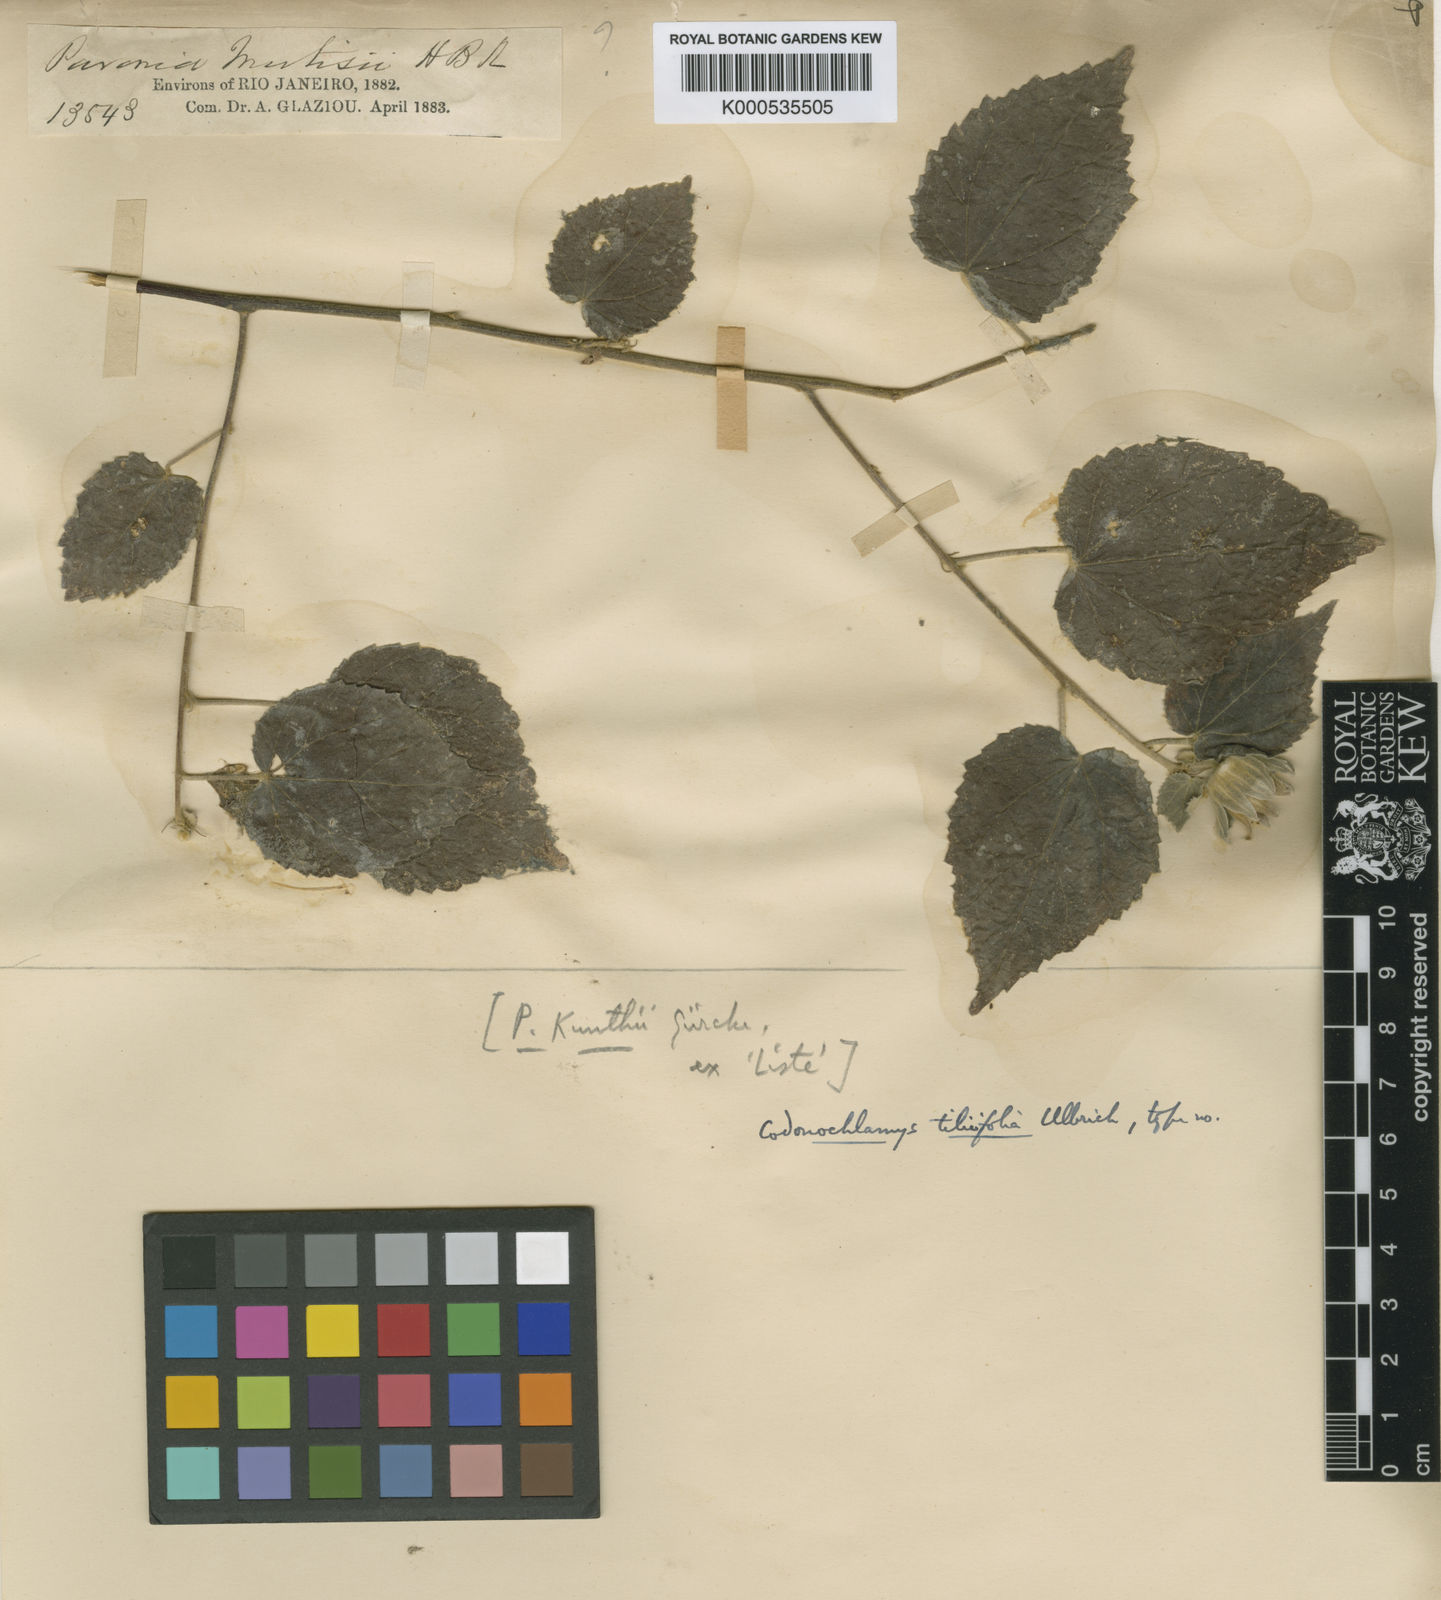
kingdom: Plantae
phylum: Tracheophyta
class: Magnoliopsida
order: Malvales
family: Malvaceae
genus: Pavonia
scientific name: Pavonia tiliifolia
